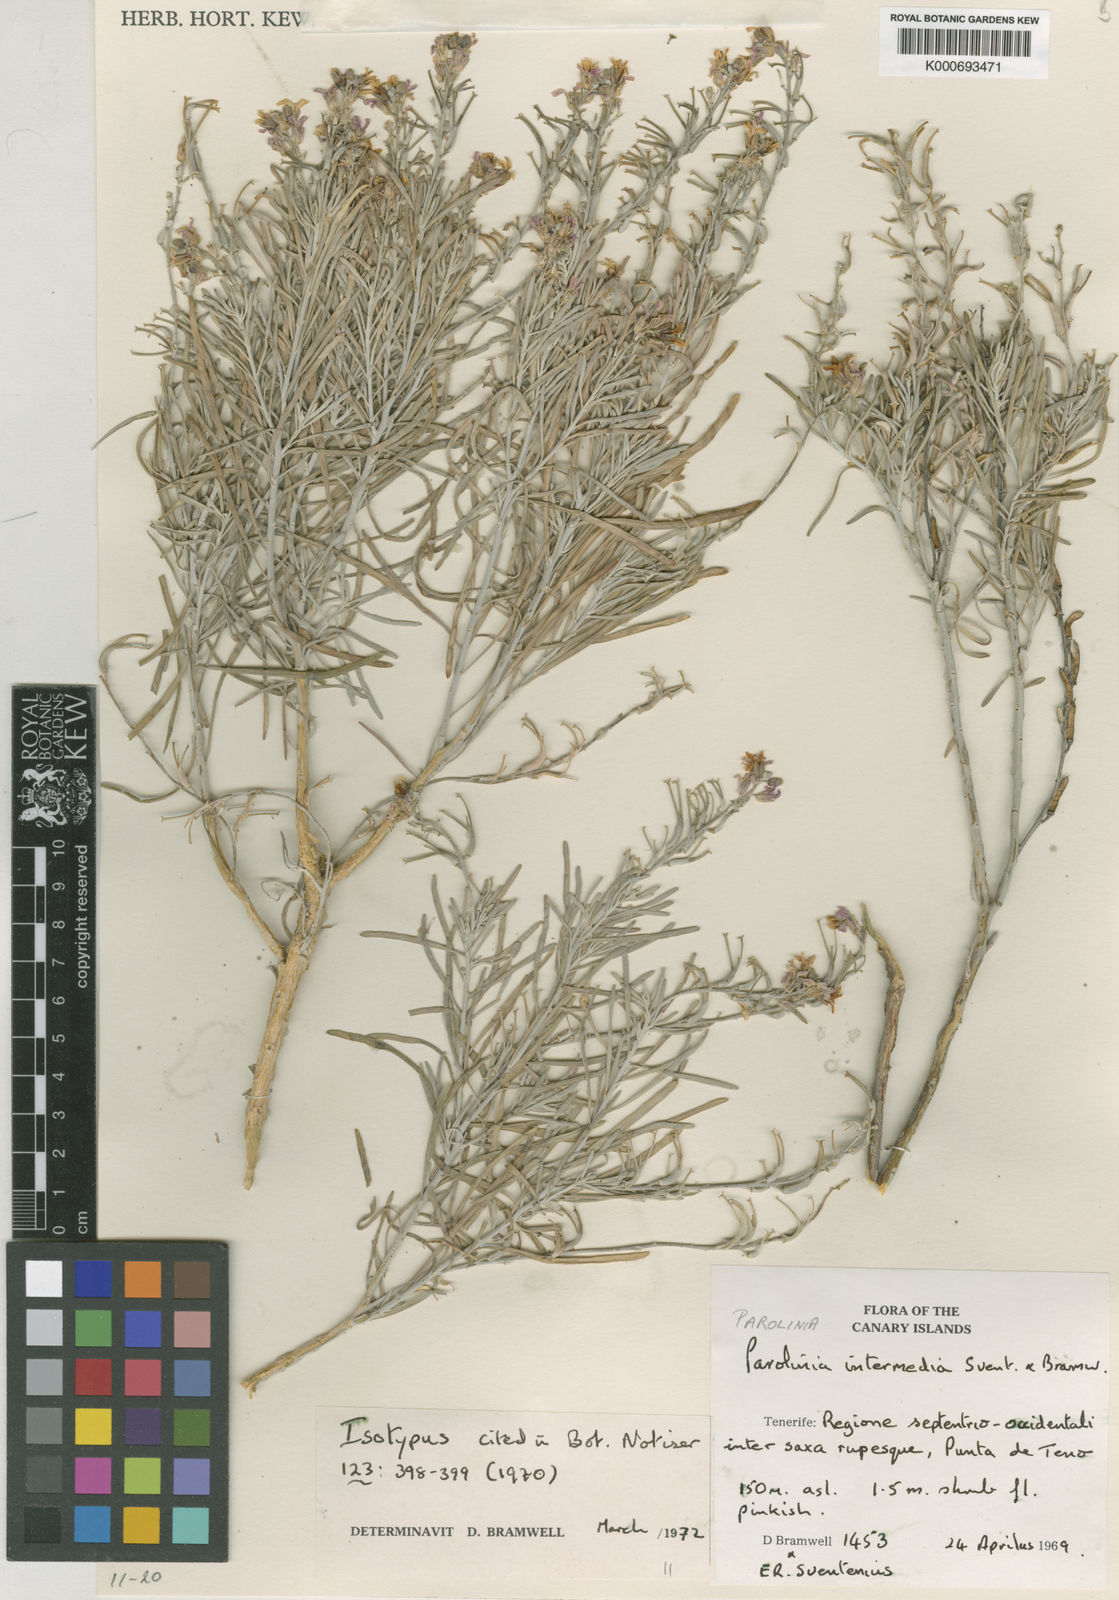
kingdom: Plantae
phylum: Tracheophyta
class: Magnoliopsida
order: Brassicales
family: Brassicaceae
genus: Parolinia
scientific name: Parolinia intermedia
